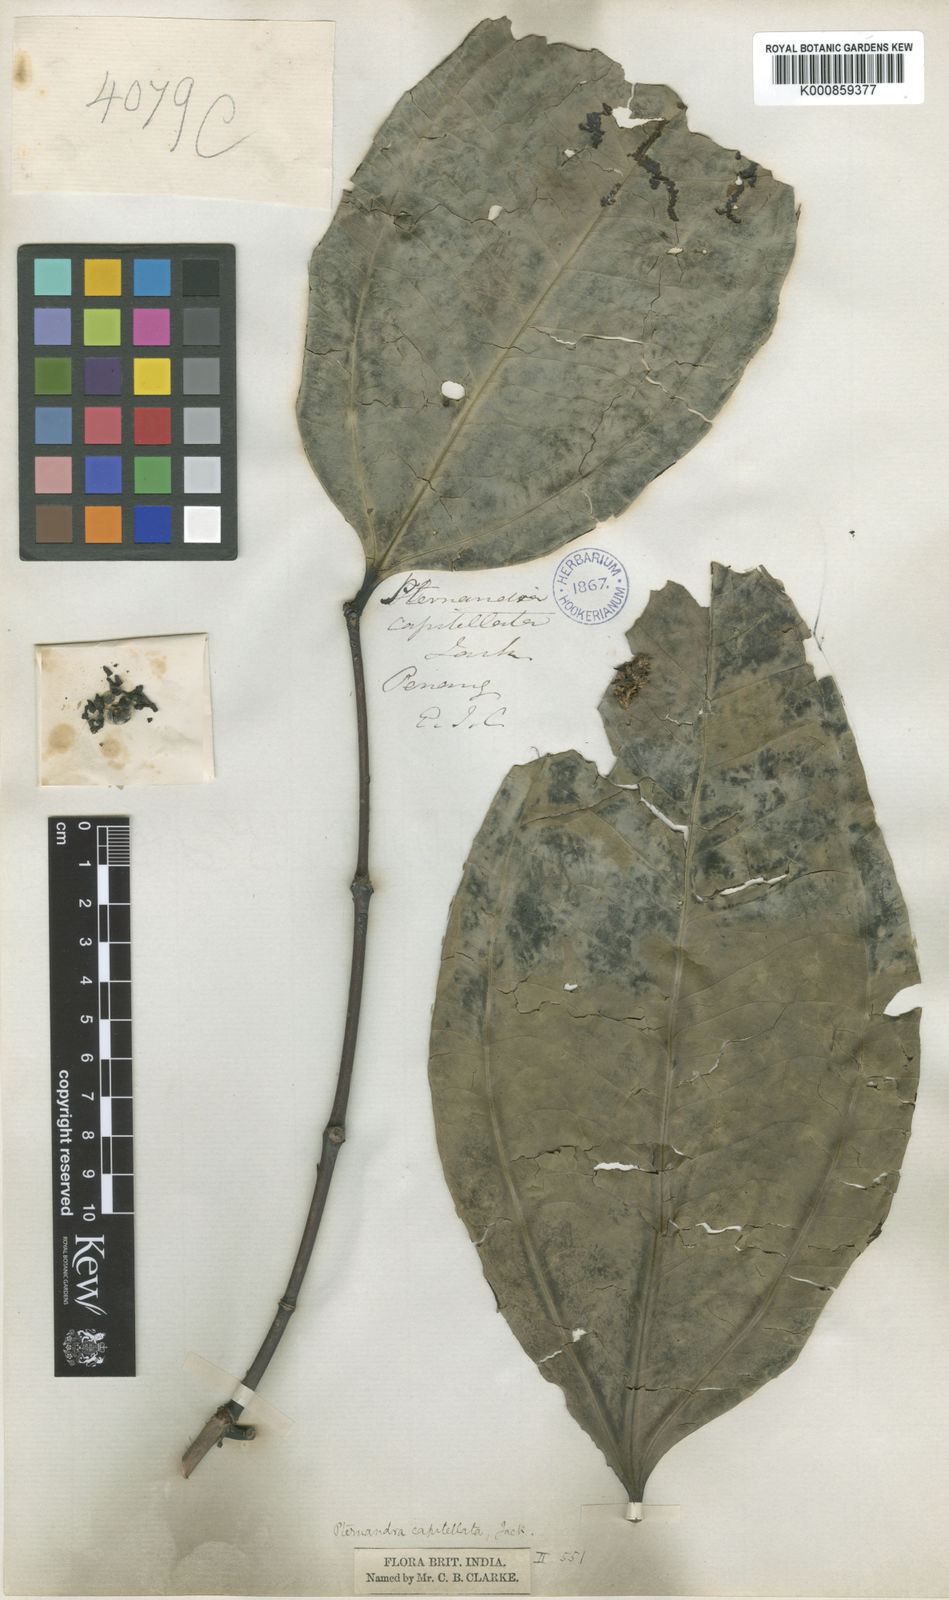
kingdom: Plantae
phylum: Tracheophyta
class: Magnoliopsida
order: Myrtales
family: Melastomataceae
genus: Pternandra
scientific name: Pternandra coerulescens
